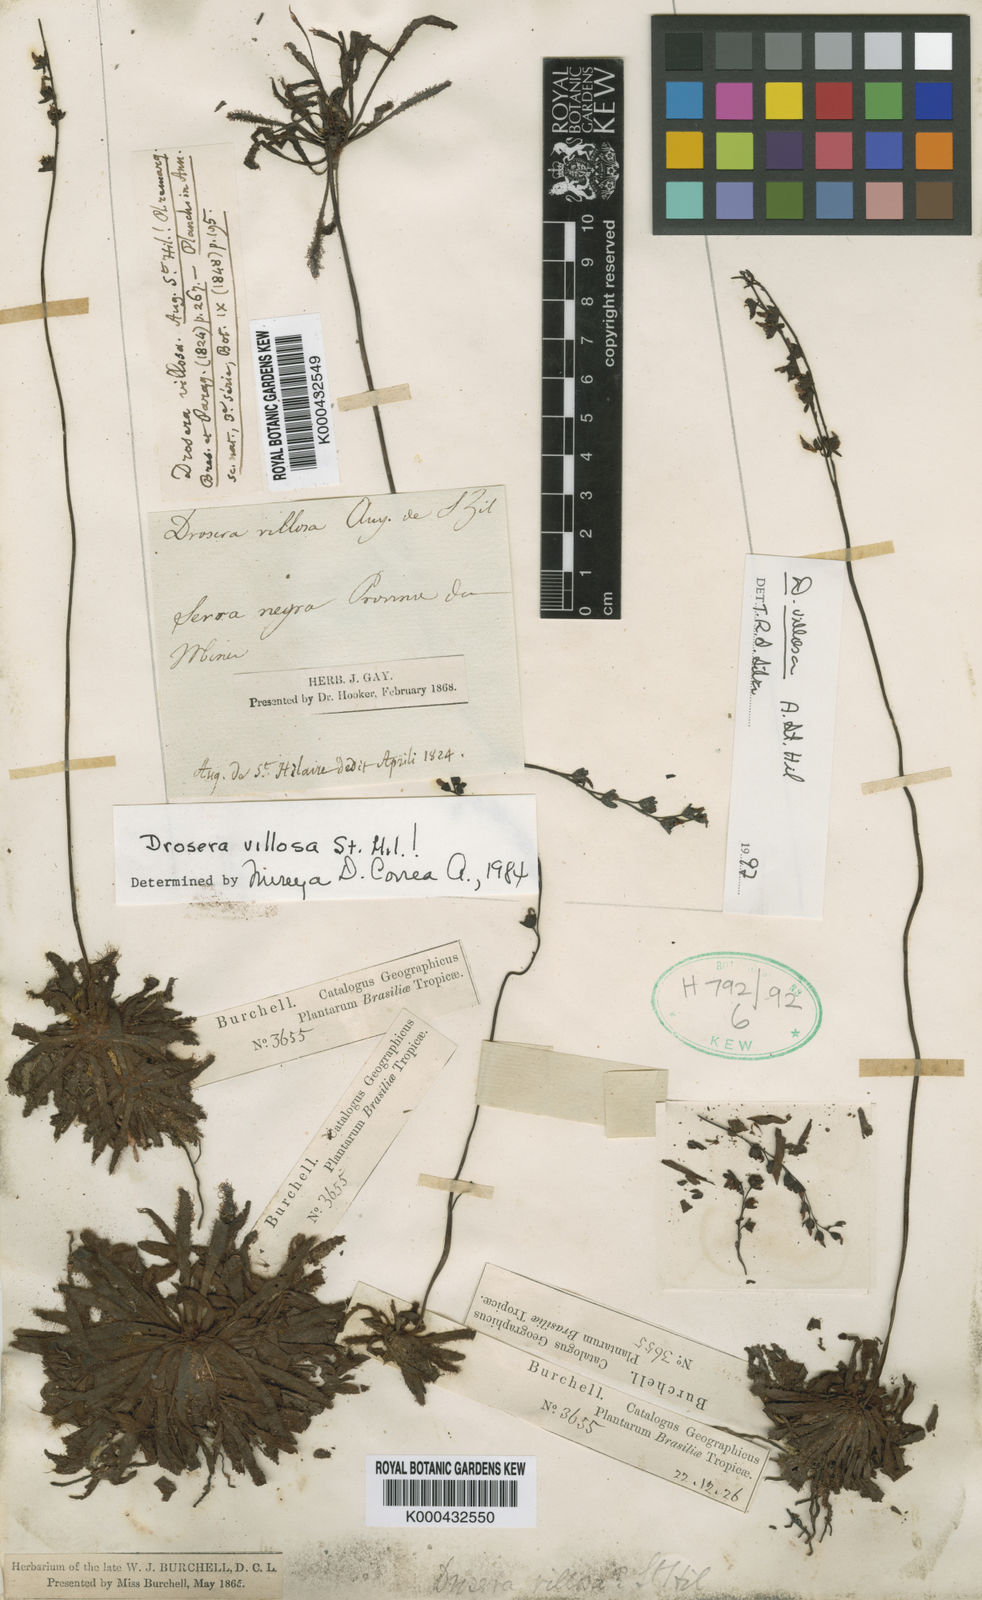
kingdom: Plantae
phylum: Tracheophyta
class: Magnoliopsida
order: Caryophyllales
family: Droseraceae
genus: Drosera
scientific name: Drosera villosa
